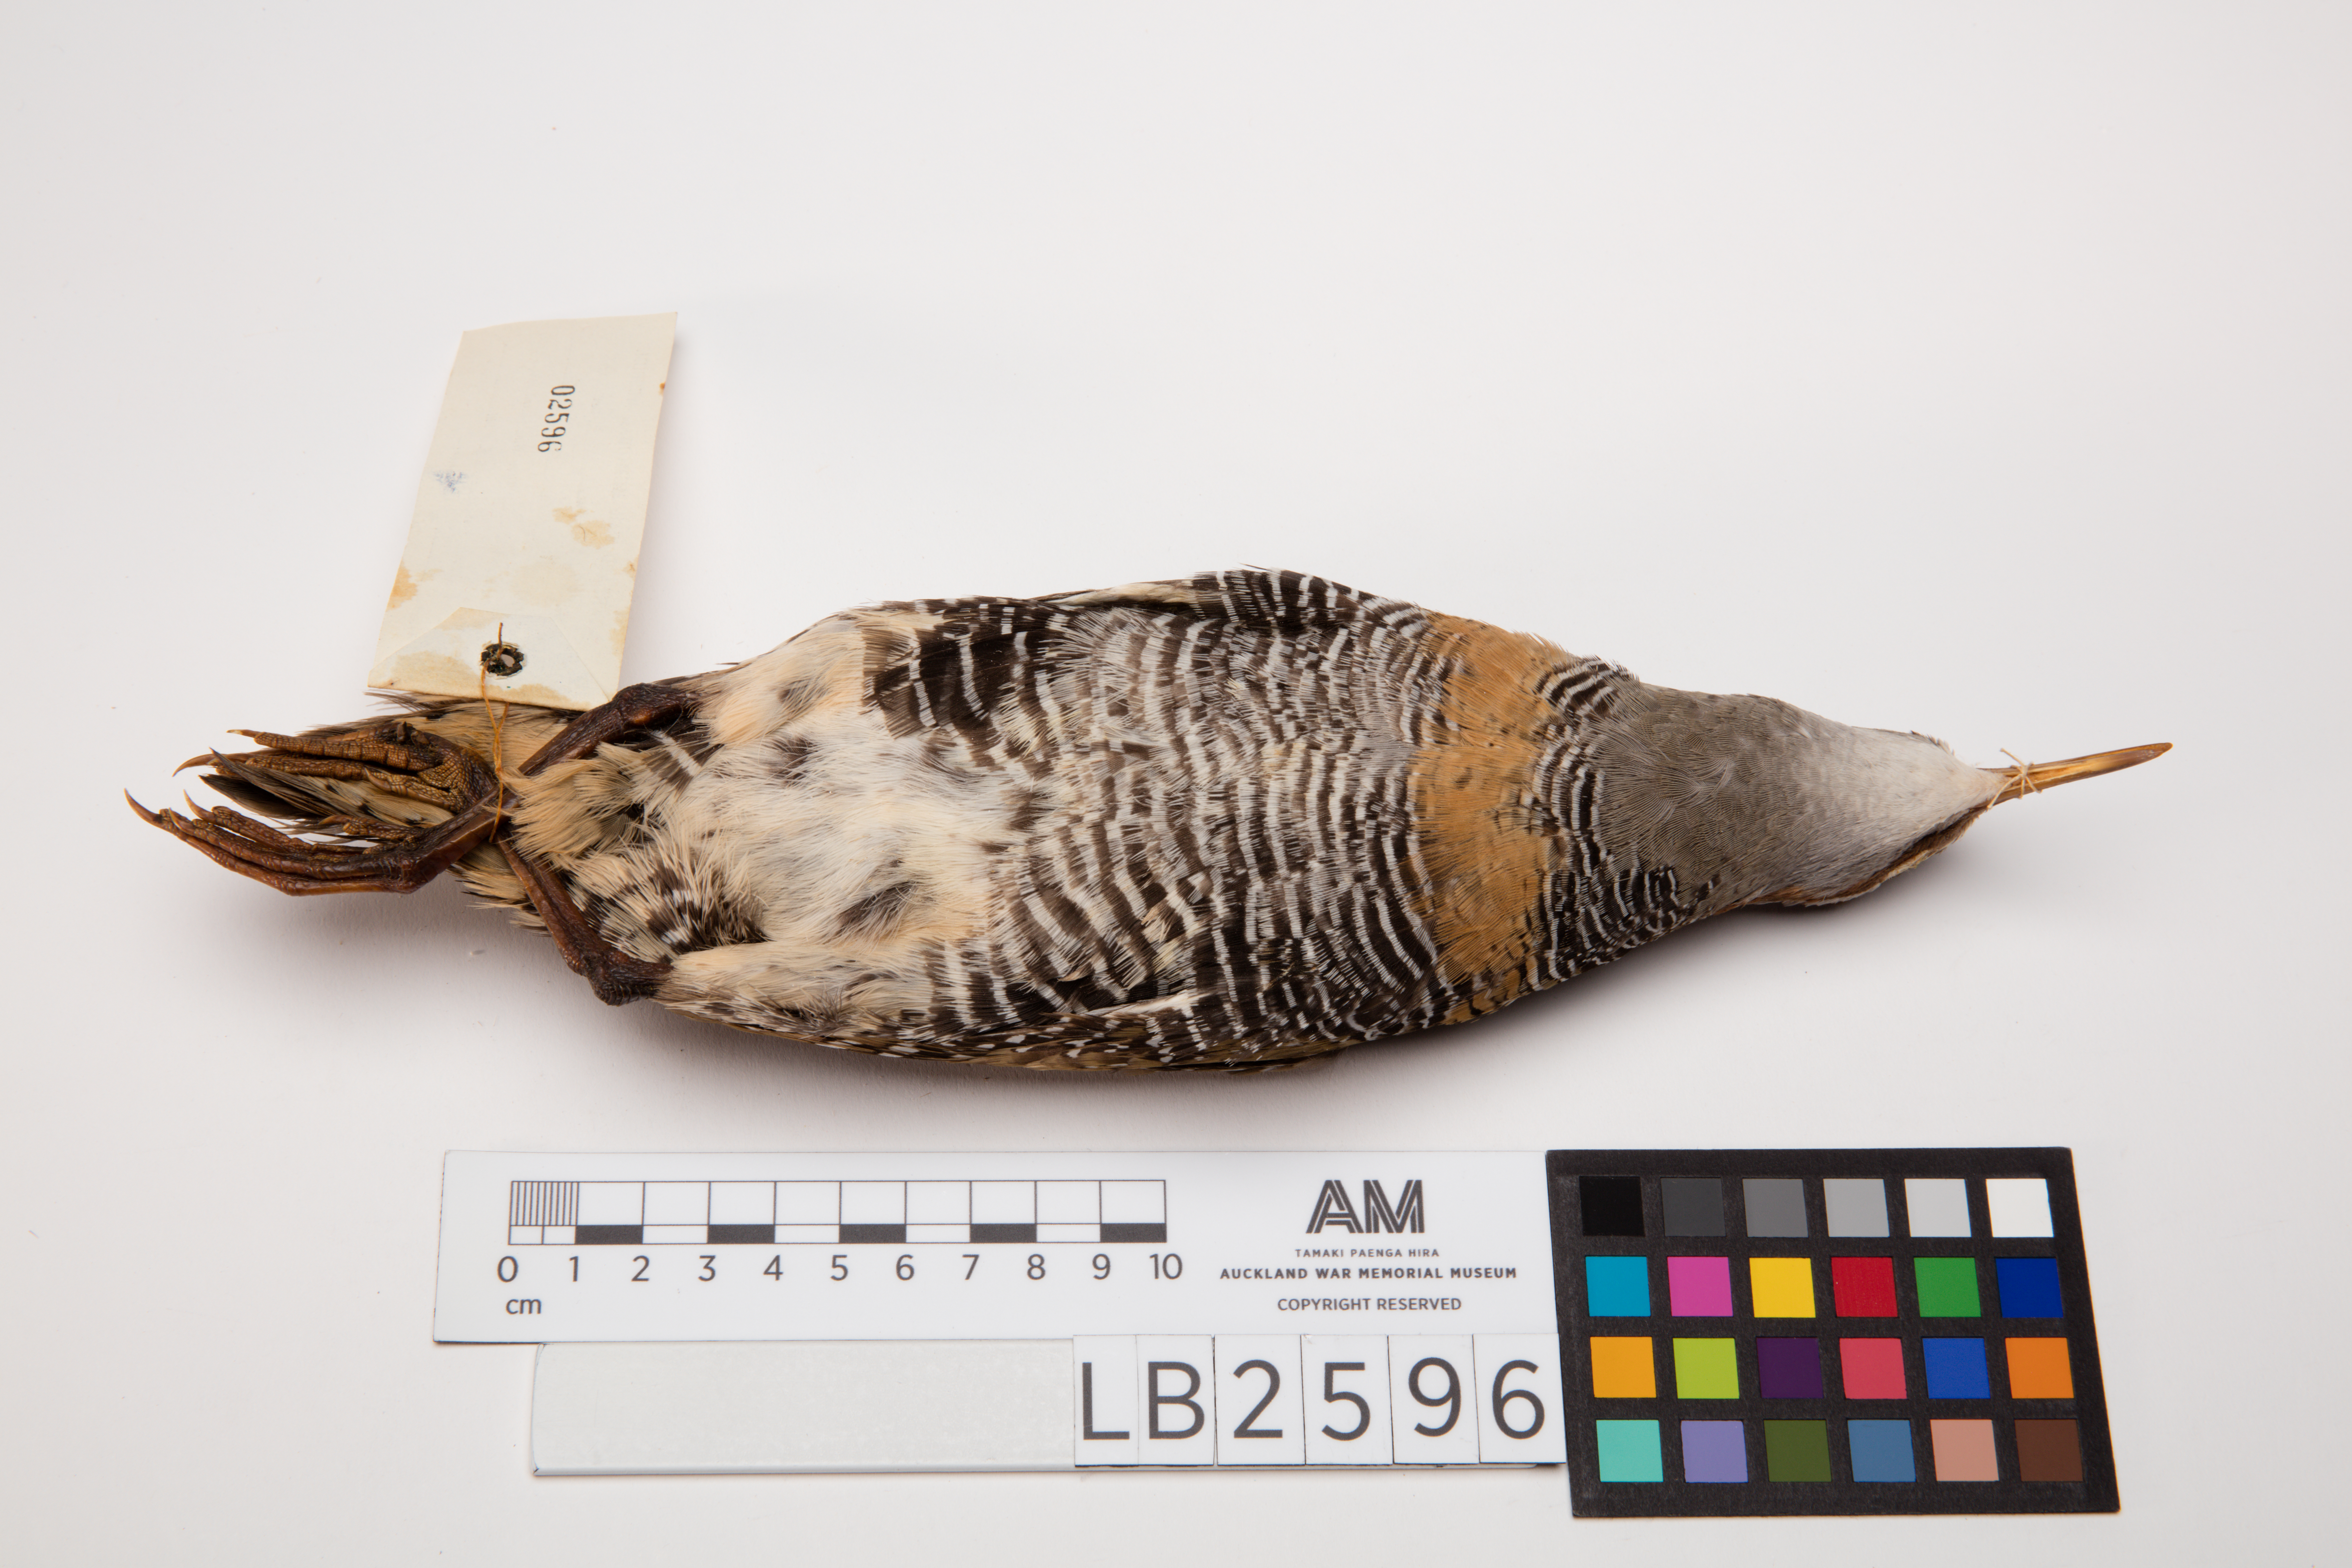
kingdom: Animalia
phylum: Chordata
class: Aves
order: Gruiformes
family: Rallidae
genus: Gallirallus
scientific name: Gallirallus philippensis
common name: Buff-banded rail
